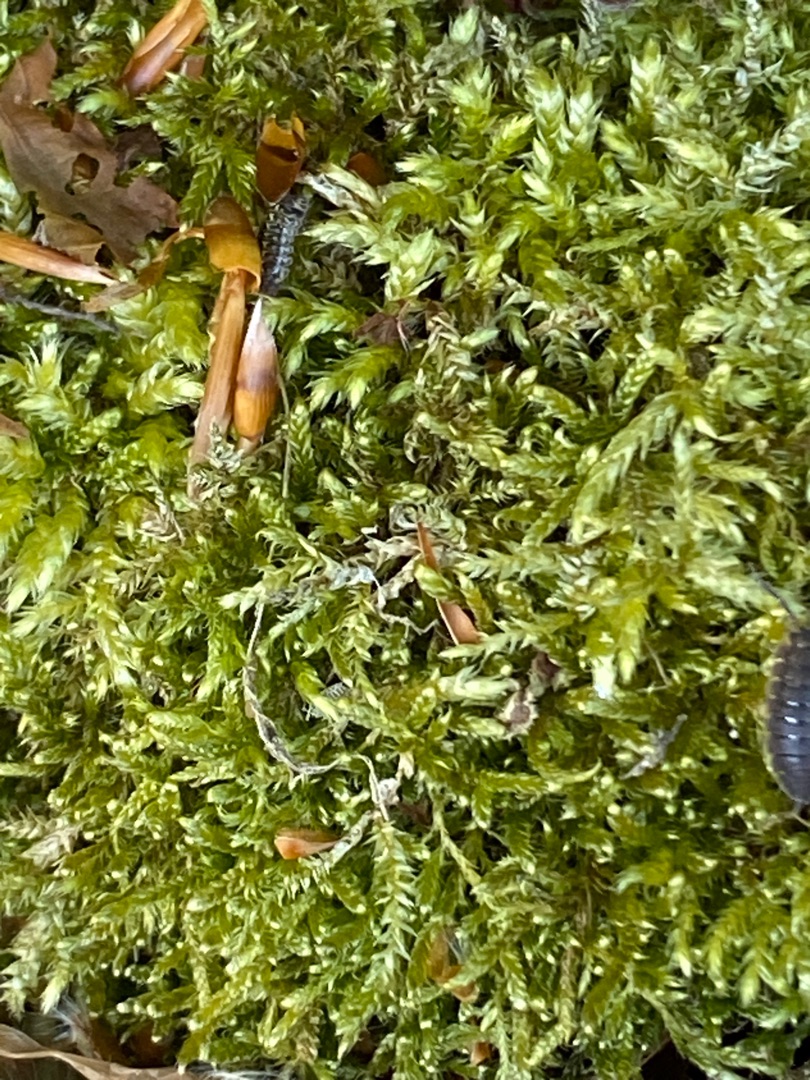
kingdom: Plantae
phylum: Bryophyta
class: Bryopsida
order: Hypnales
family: Hypnaceae
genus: Hypnum
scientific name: Hypnum
